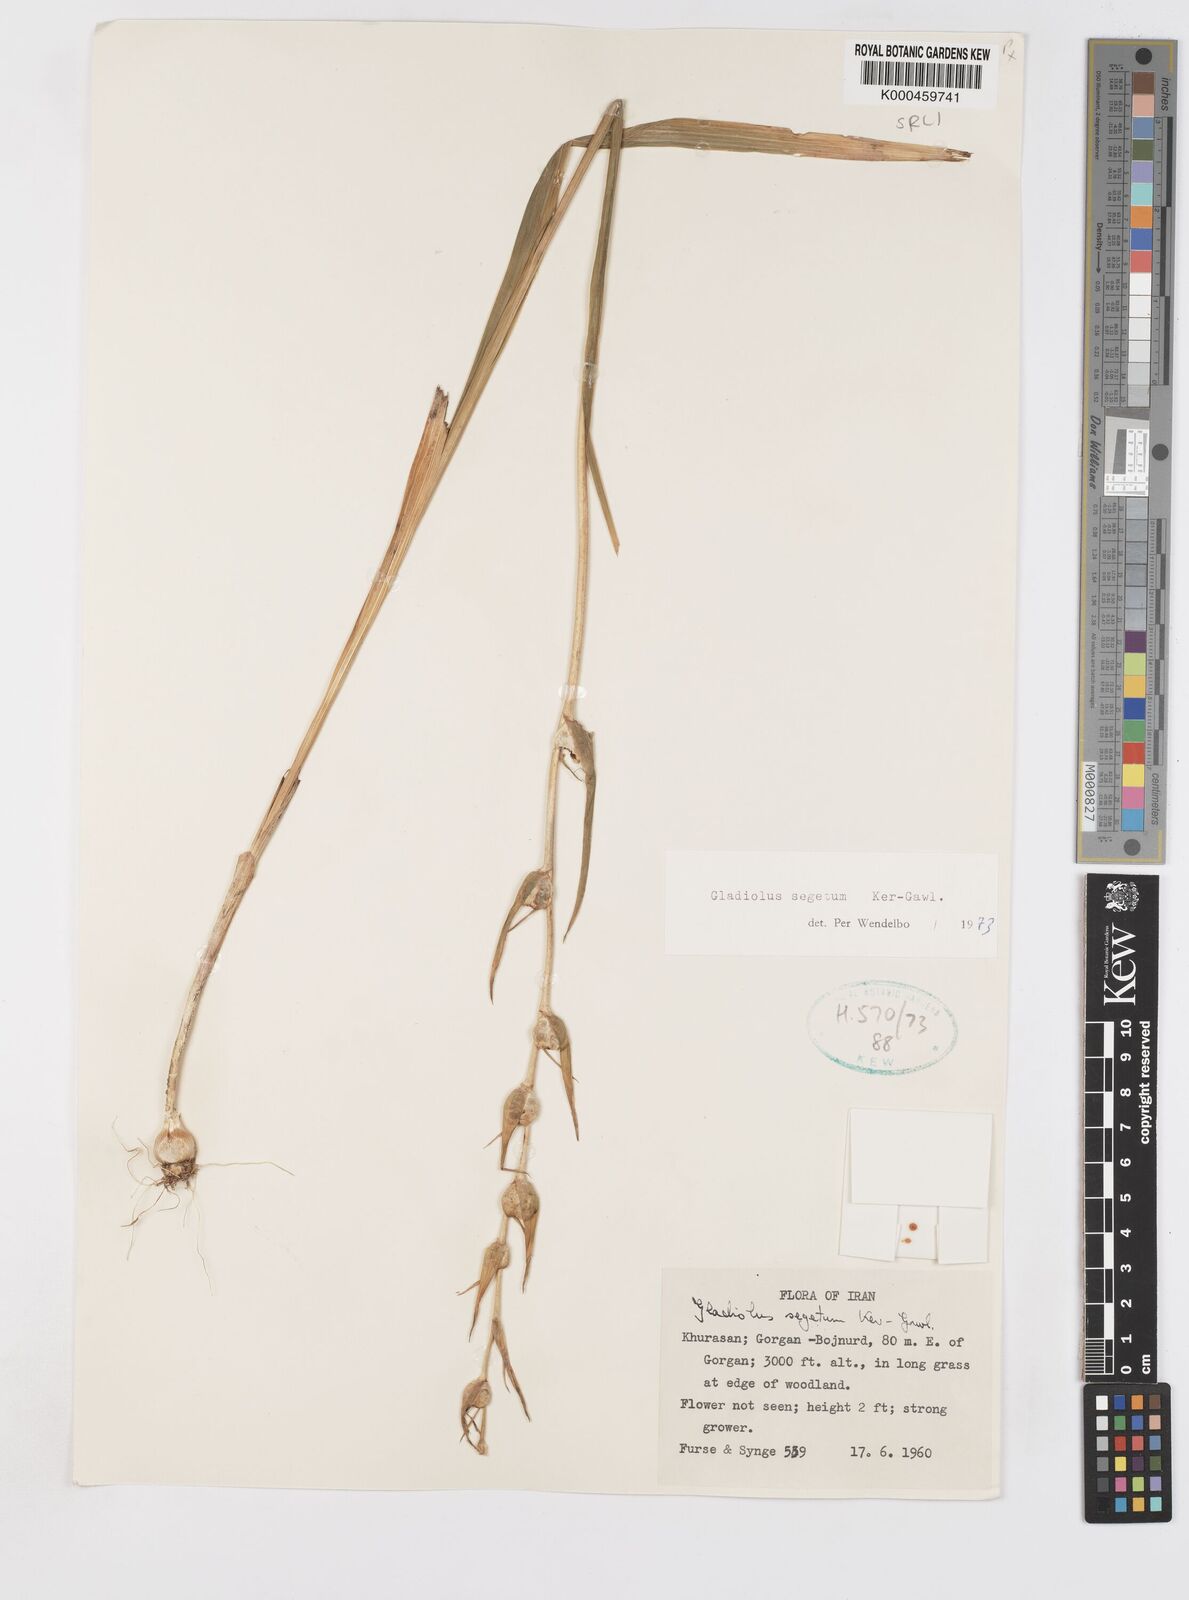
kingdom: Plantae
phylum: Tracheophyta
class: Liliopsida
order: Asparagales
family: Iridaceae
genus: Gladiolus
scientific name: Gladiolus italicus
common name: Field gladiolus
